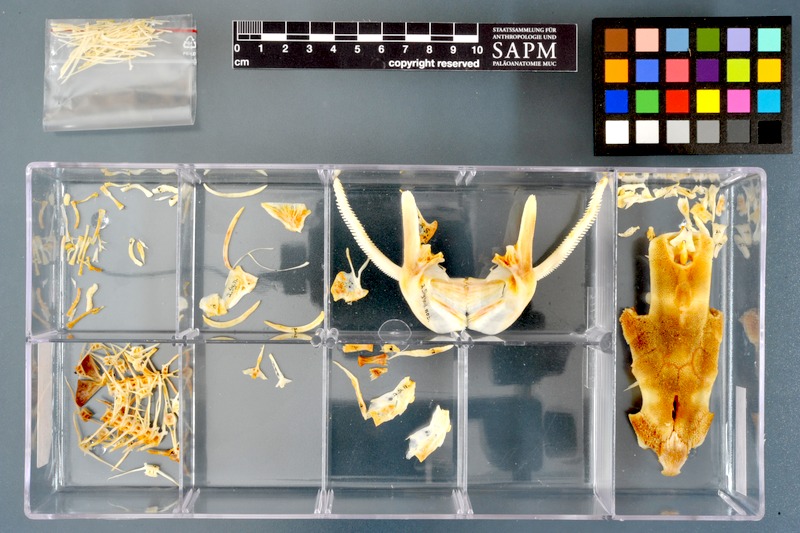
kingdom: Animalia
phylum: Chordata
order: Siluriformes
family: Mochokidae
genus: Synodontis
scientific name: Synodontis notatus
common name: Onespot squeaker
